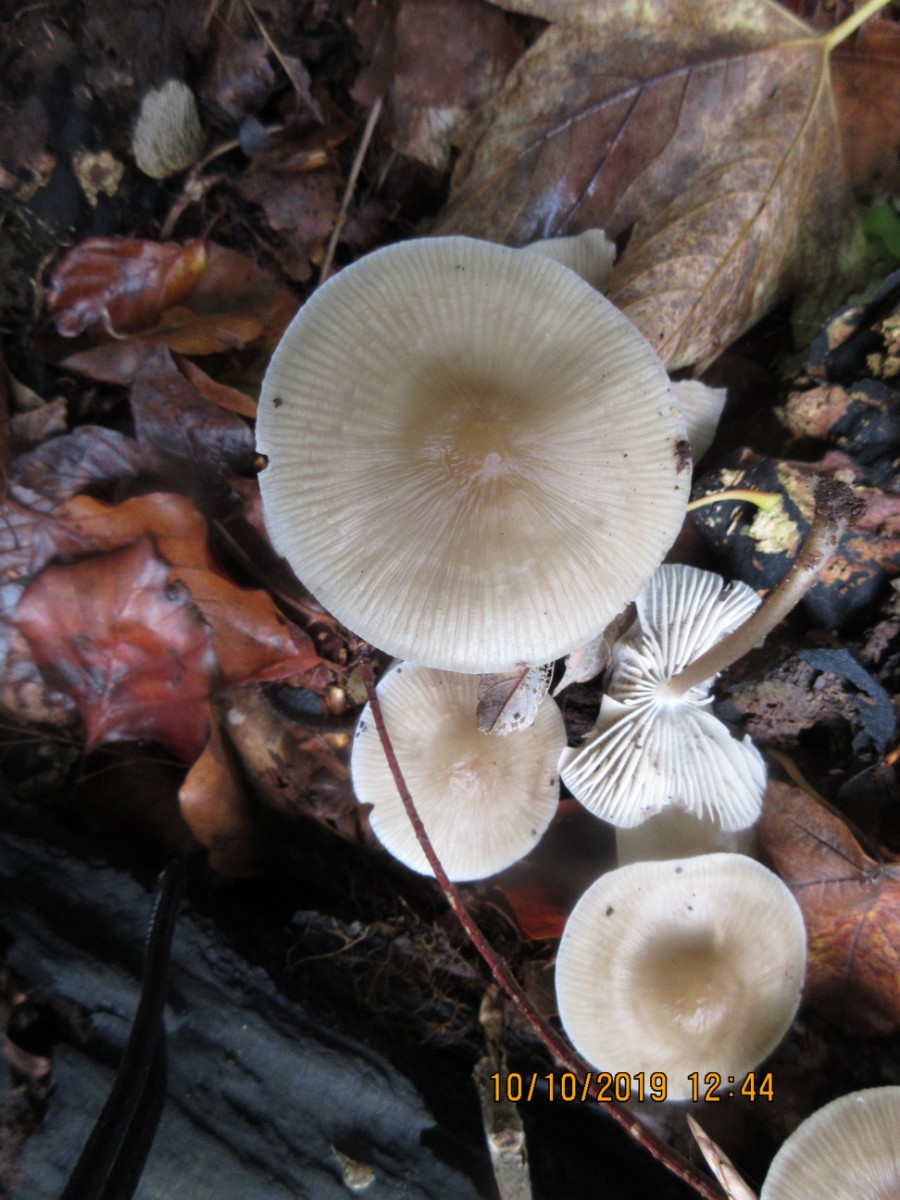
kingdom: Fungi
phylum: Basidiomycota
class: Agaricomycetes
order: Agaricales
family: Mycenaceae
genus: Mycena
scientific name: Mycena galericulata
